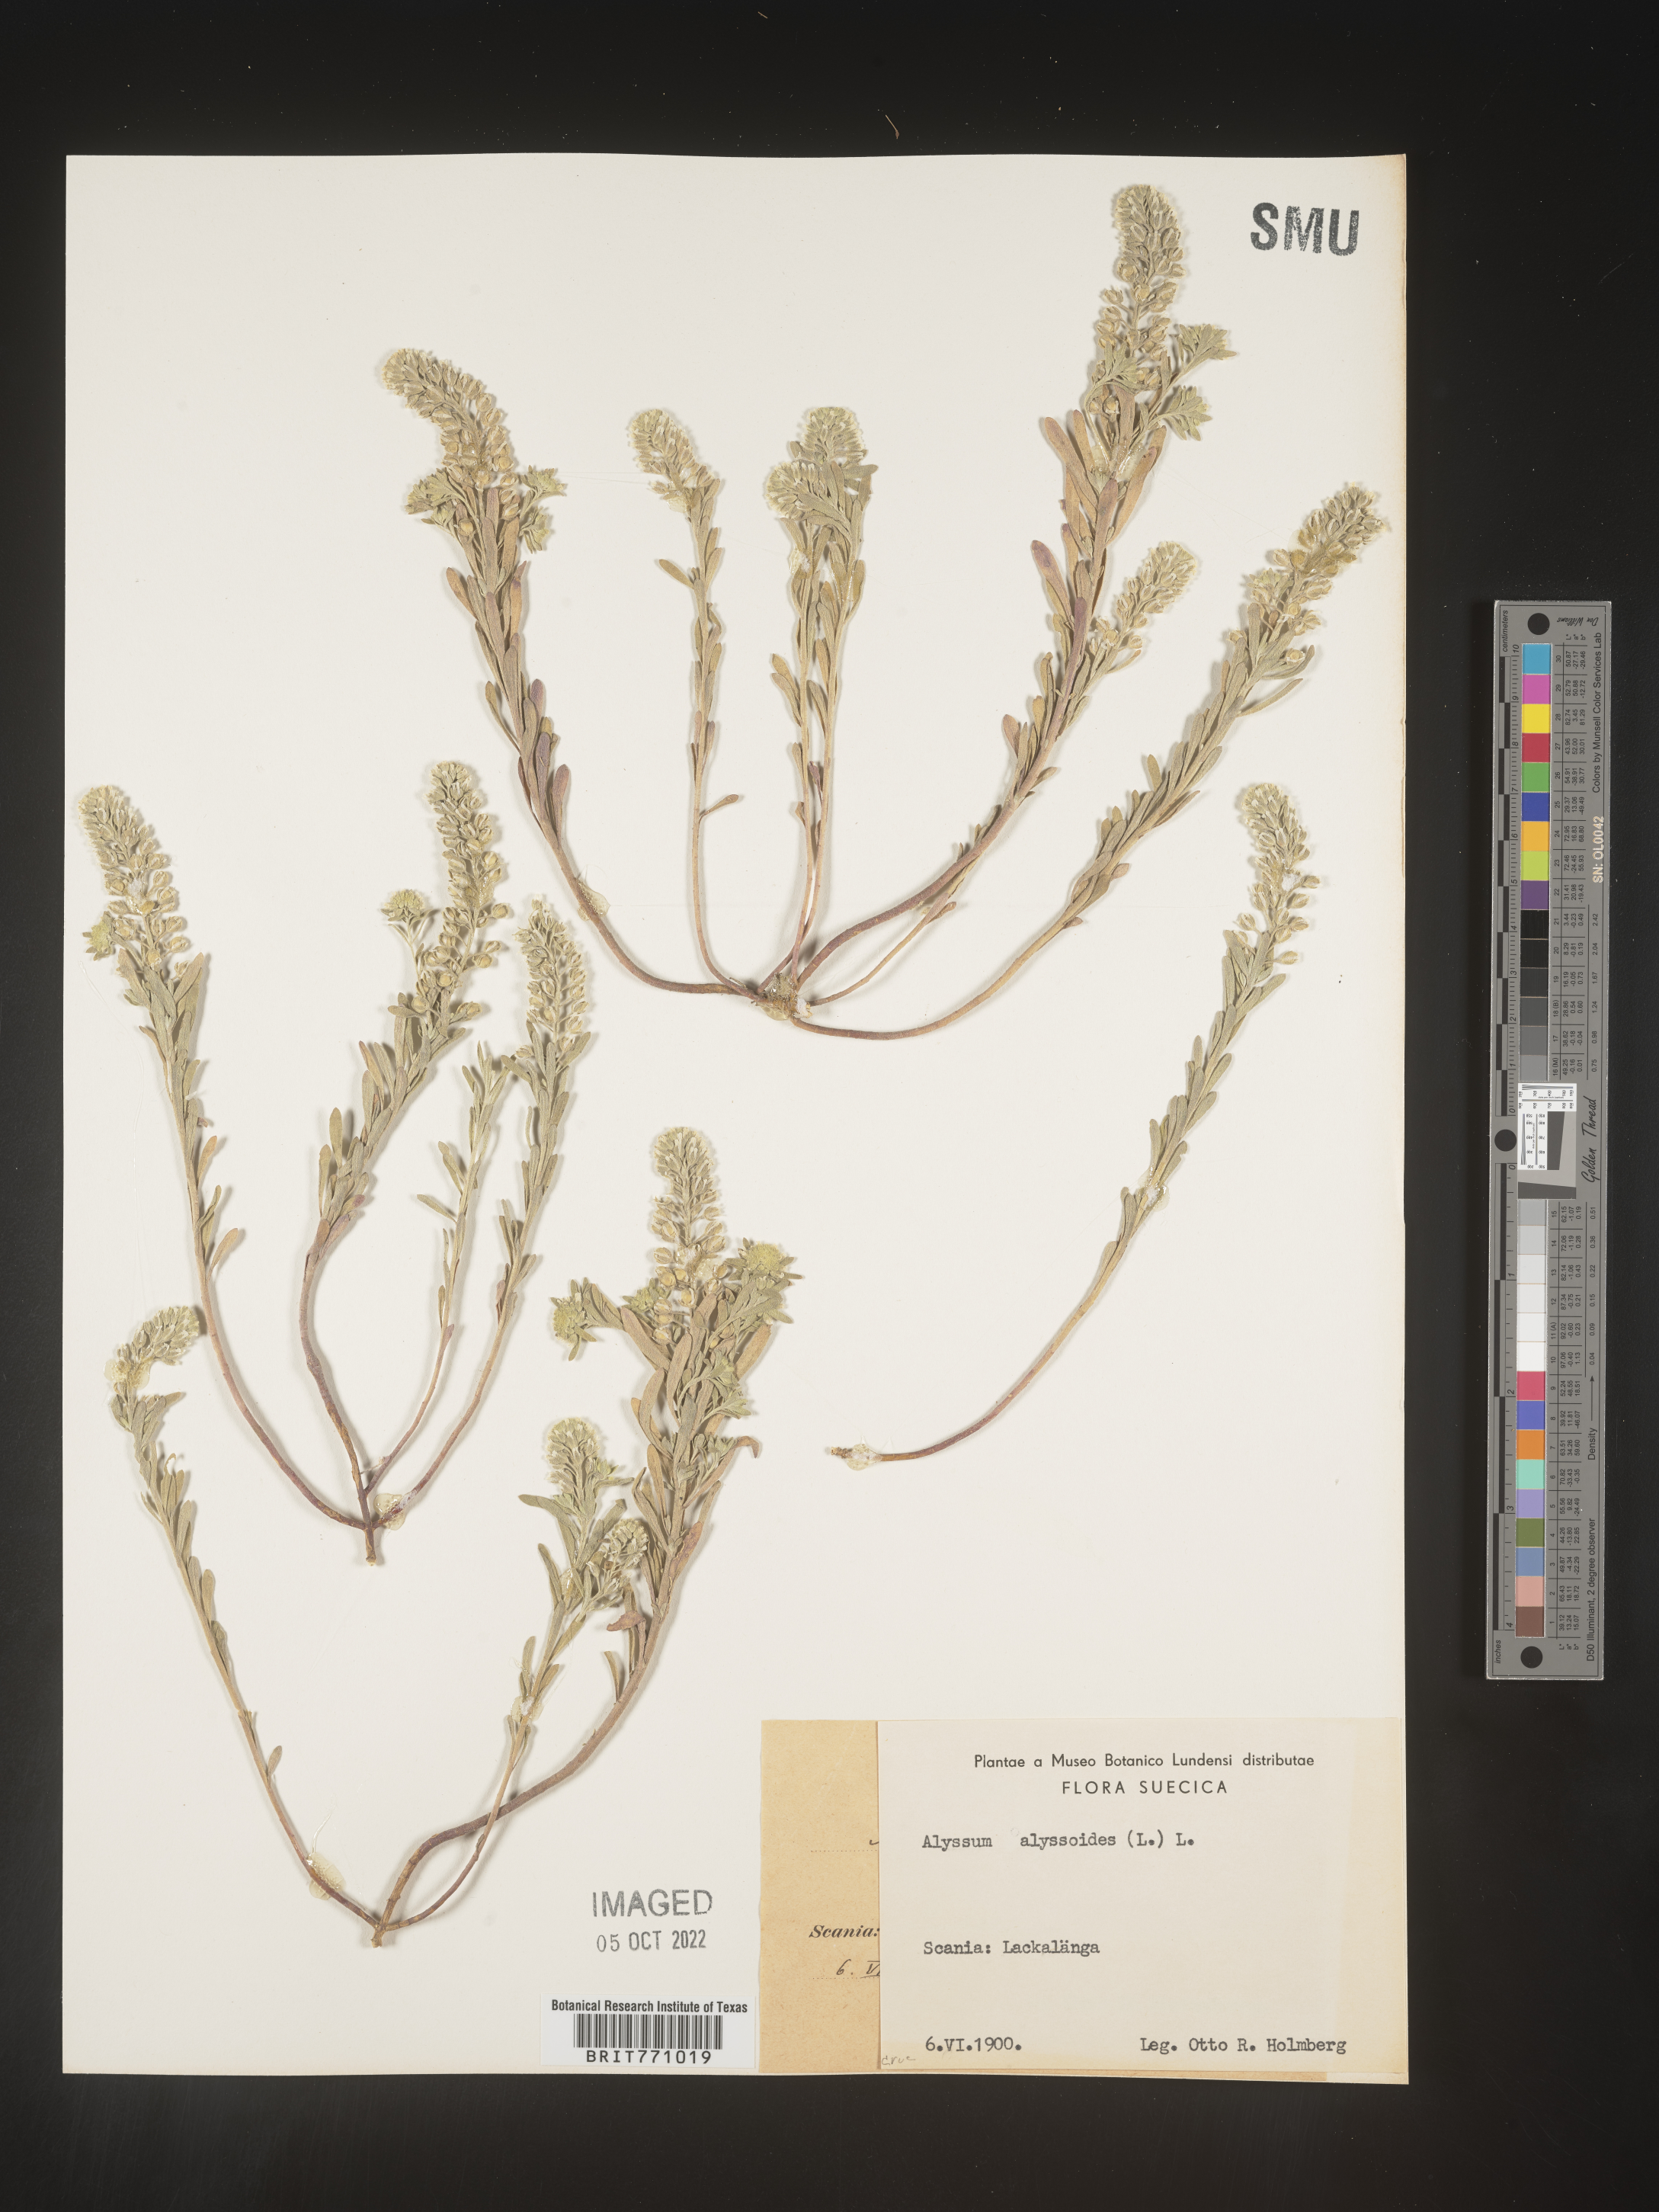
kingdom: Plantae
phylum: Tracheophyta
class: Magnoliopsida
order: Brassicales
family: Brassicaceae
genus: Alyssum
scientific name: Alyssum
